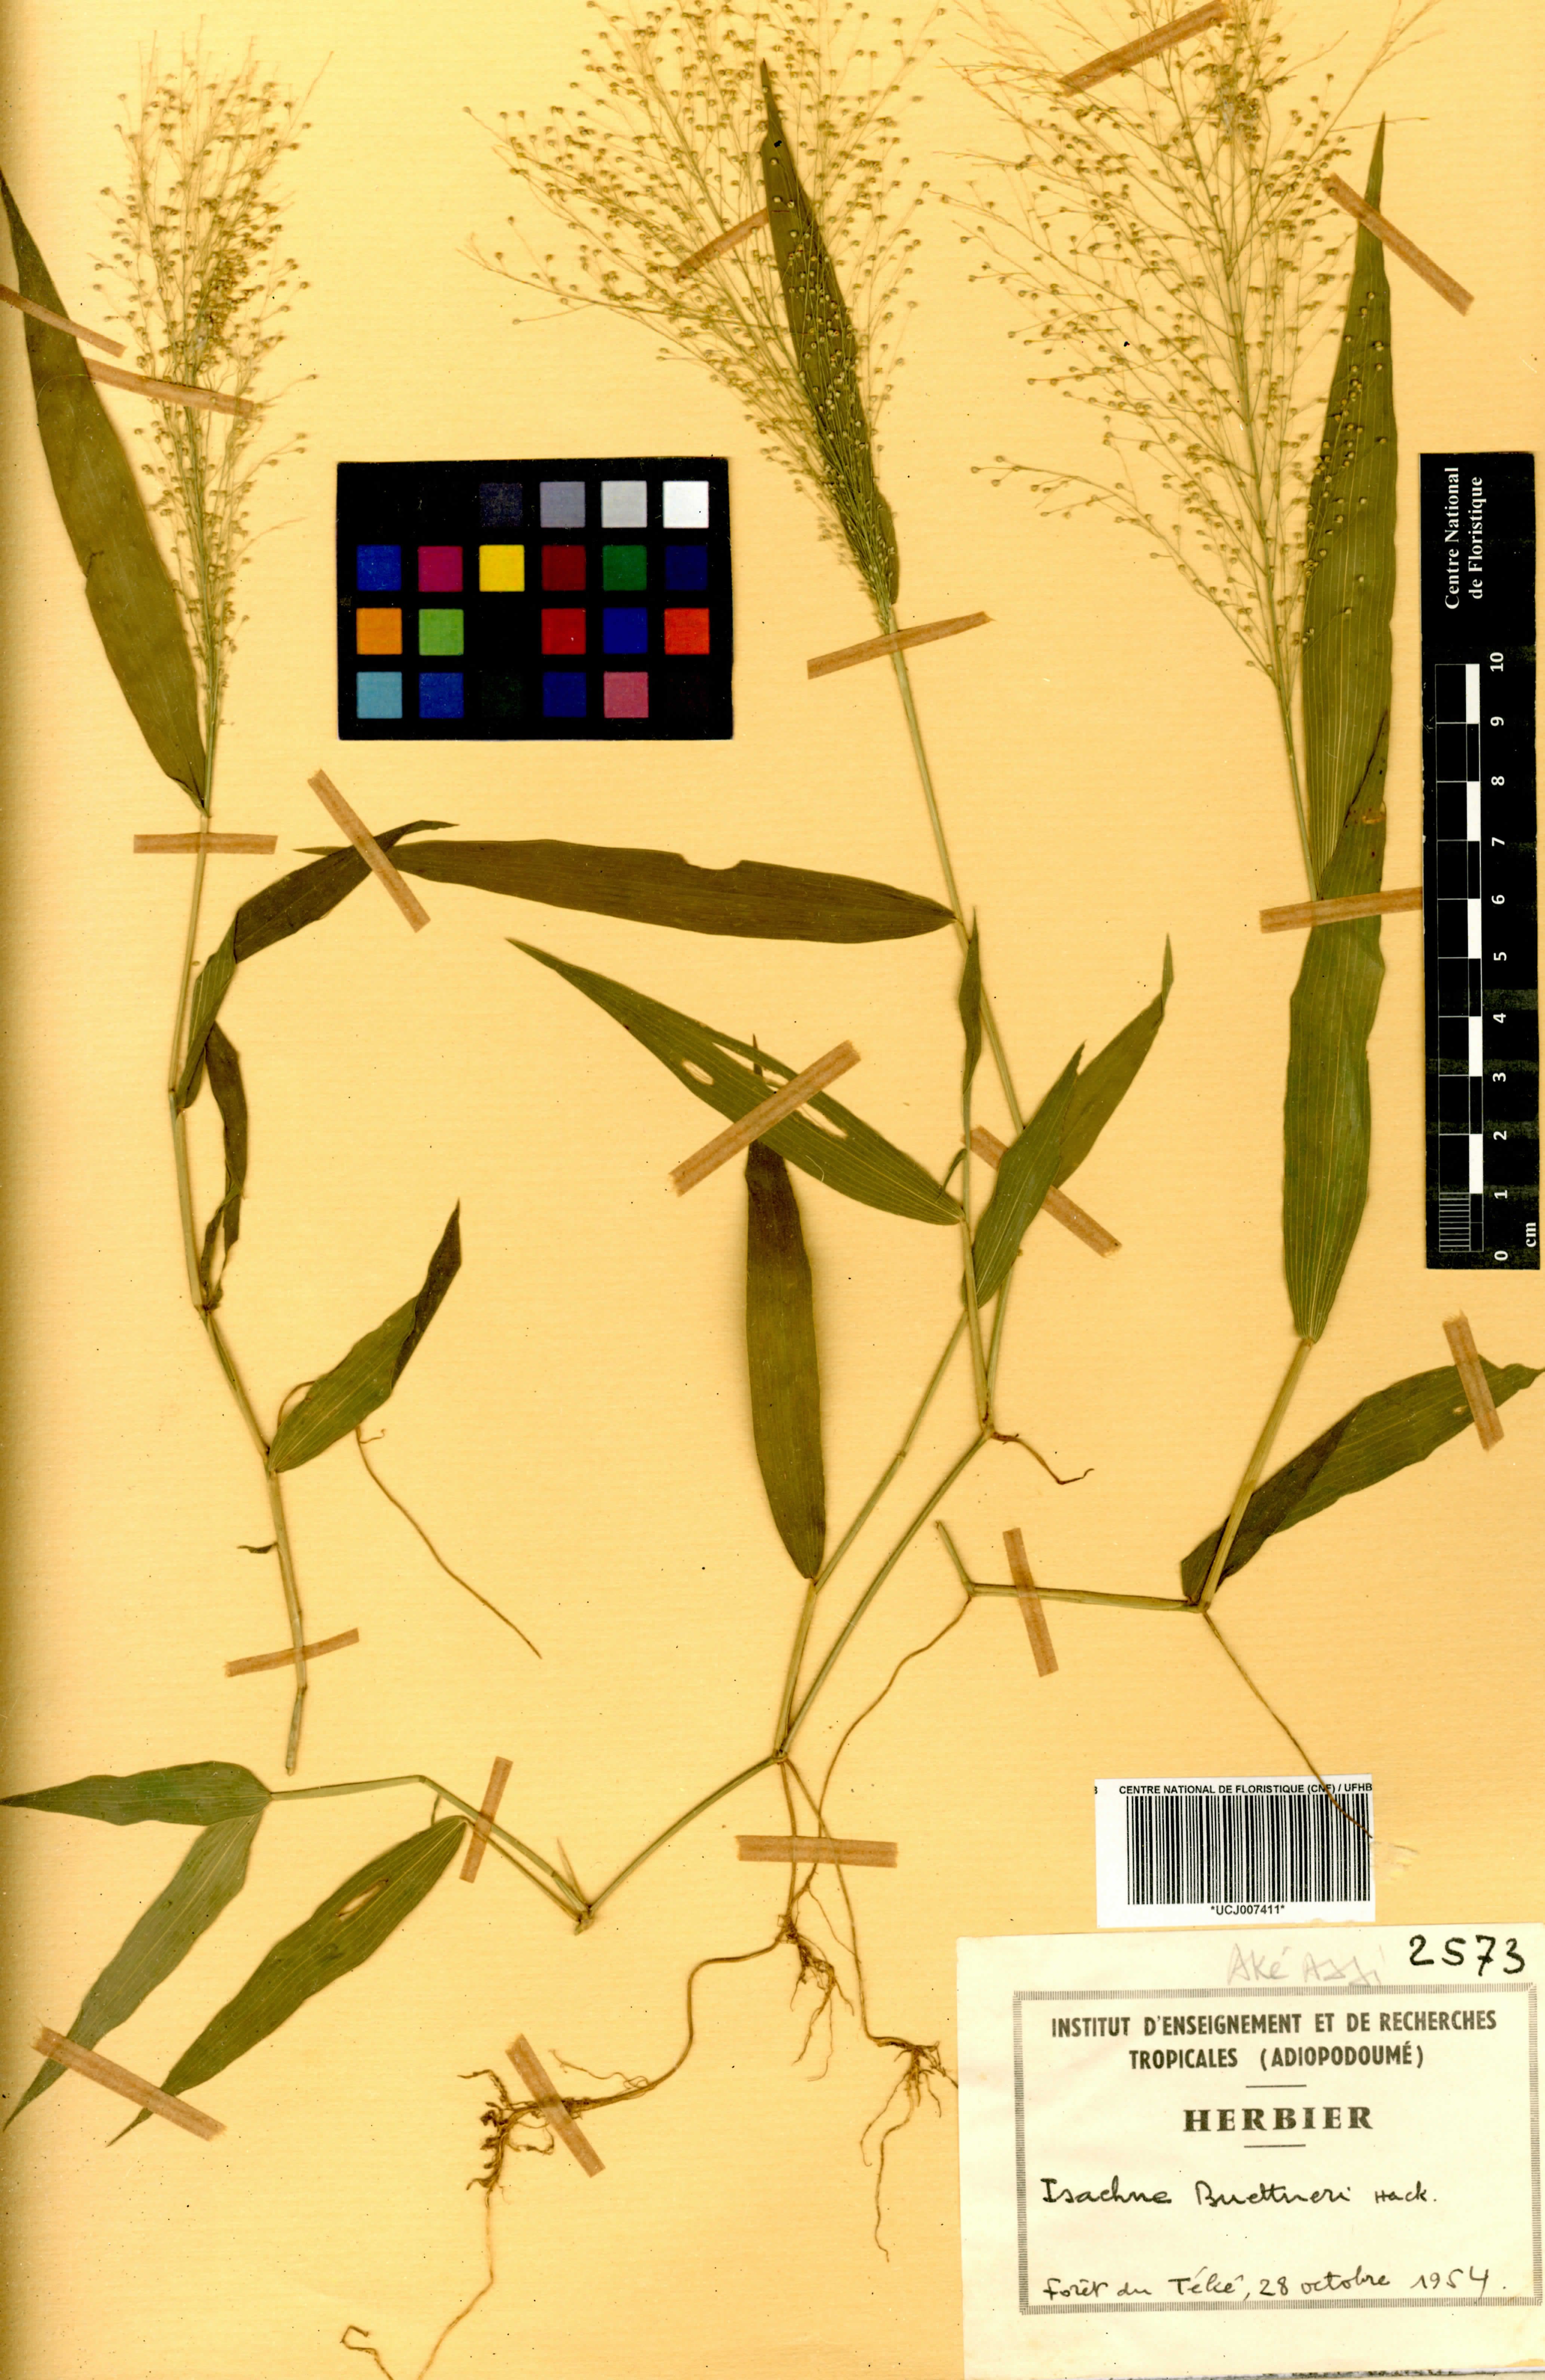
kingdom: Plantae
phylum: Tracheophyta
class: Liliopsida
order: Poales
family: Poaceae
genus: Isachne
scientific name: Isachne albens
